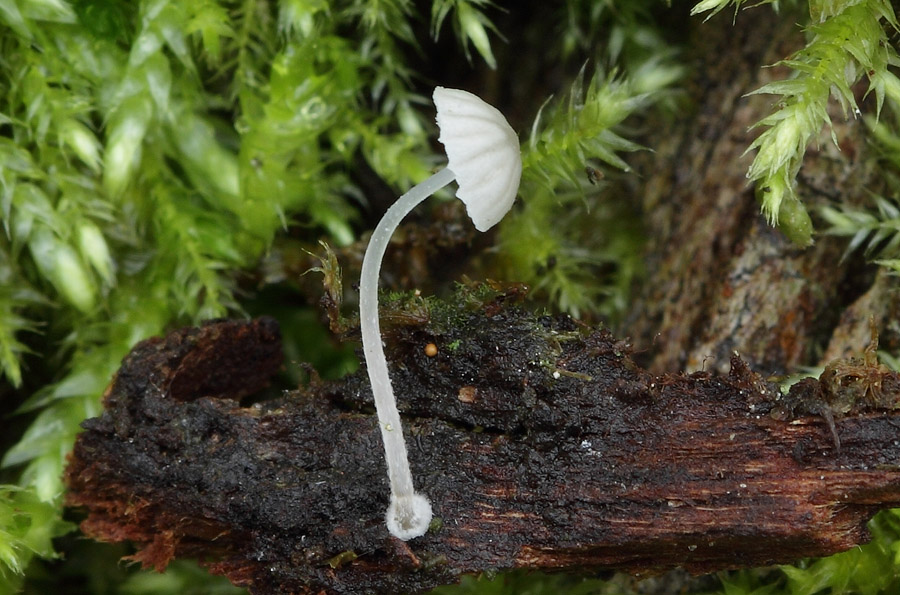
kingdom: Fungi
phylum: Basidiomycota
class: Agaricomycetes
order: Agaricales
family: Mycenaceae
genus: Mycena
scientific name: Mycena clavularis
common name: dunskivet huesvamp
